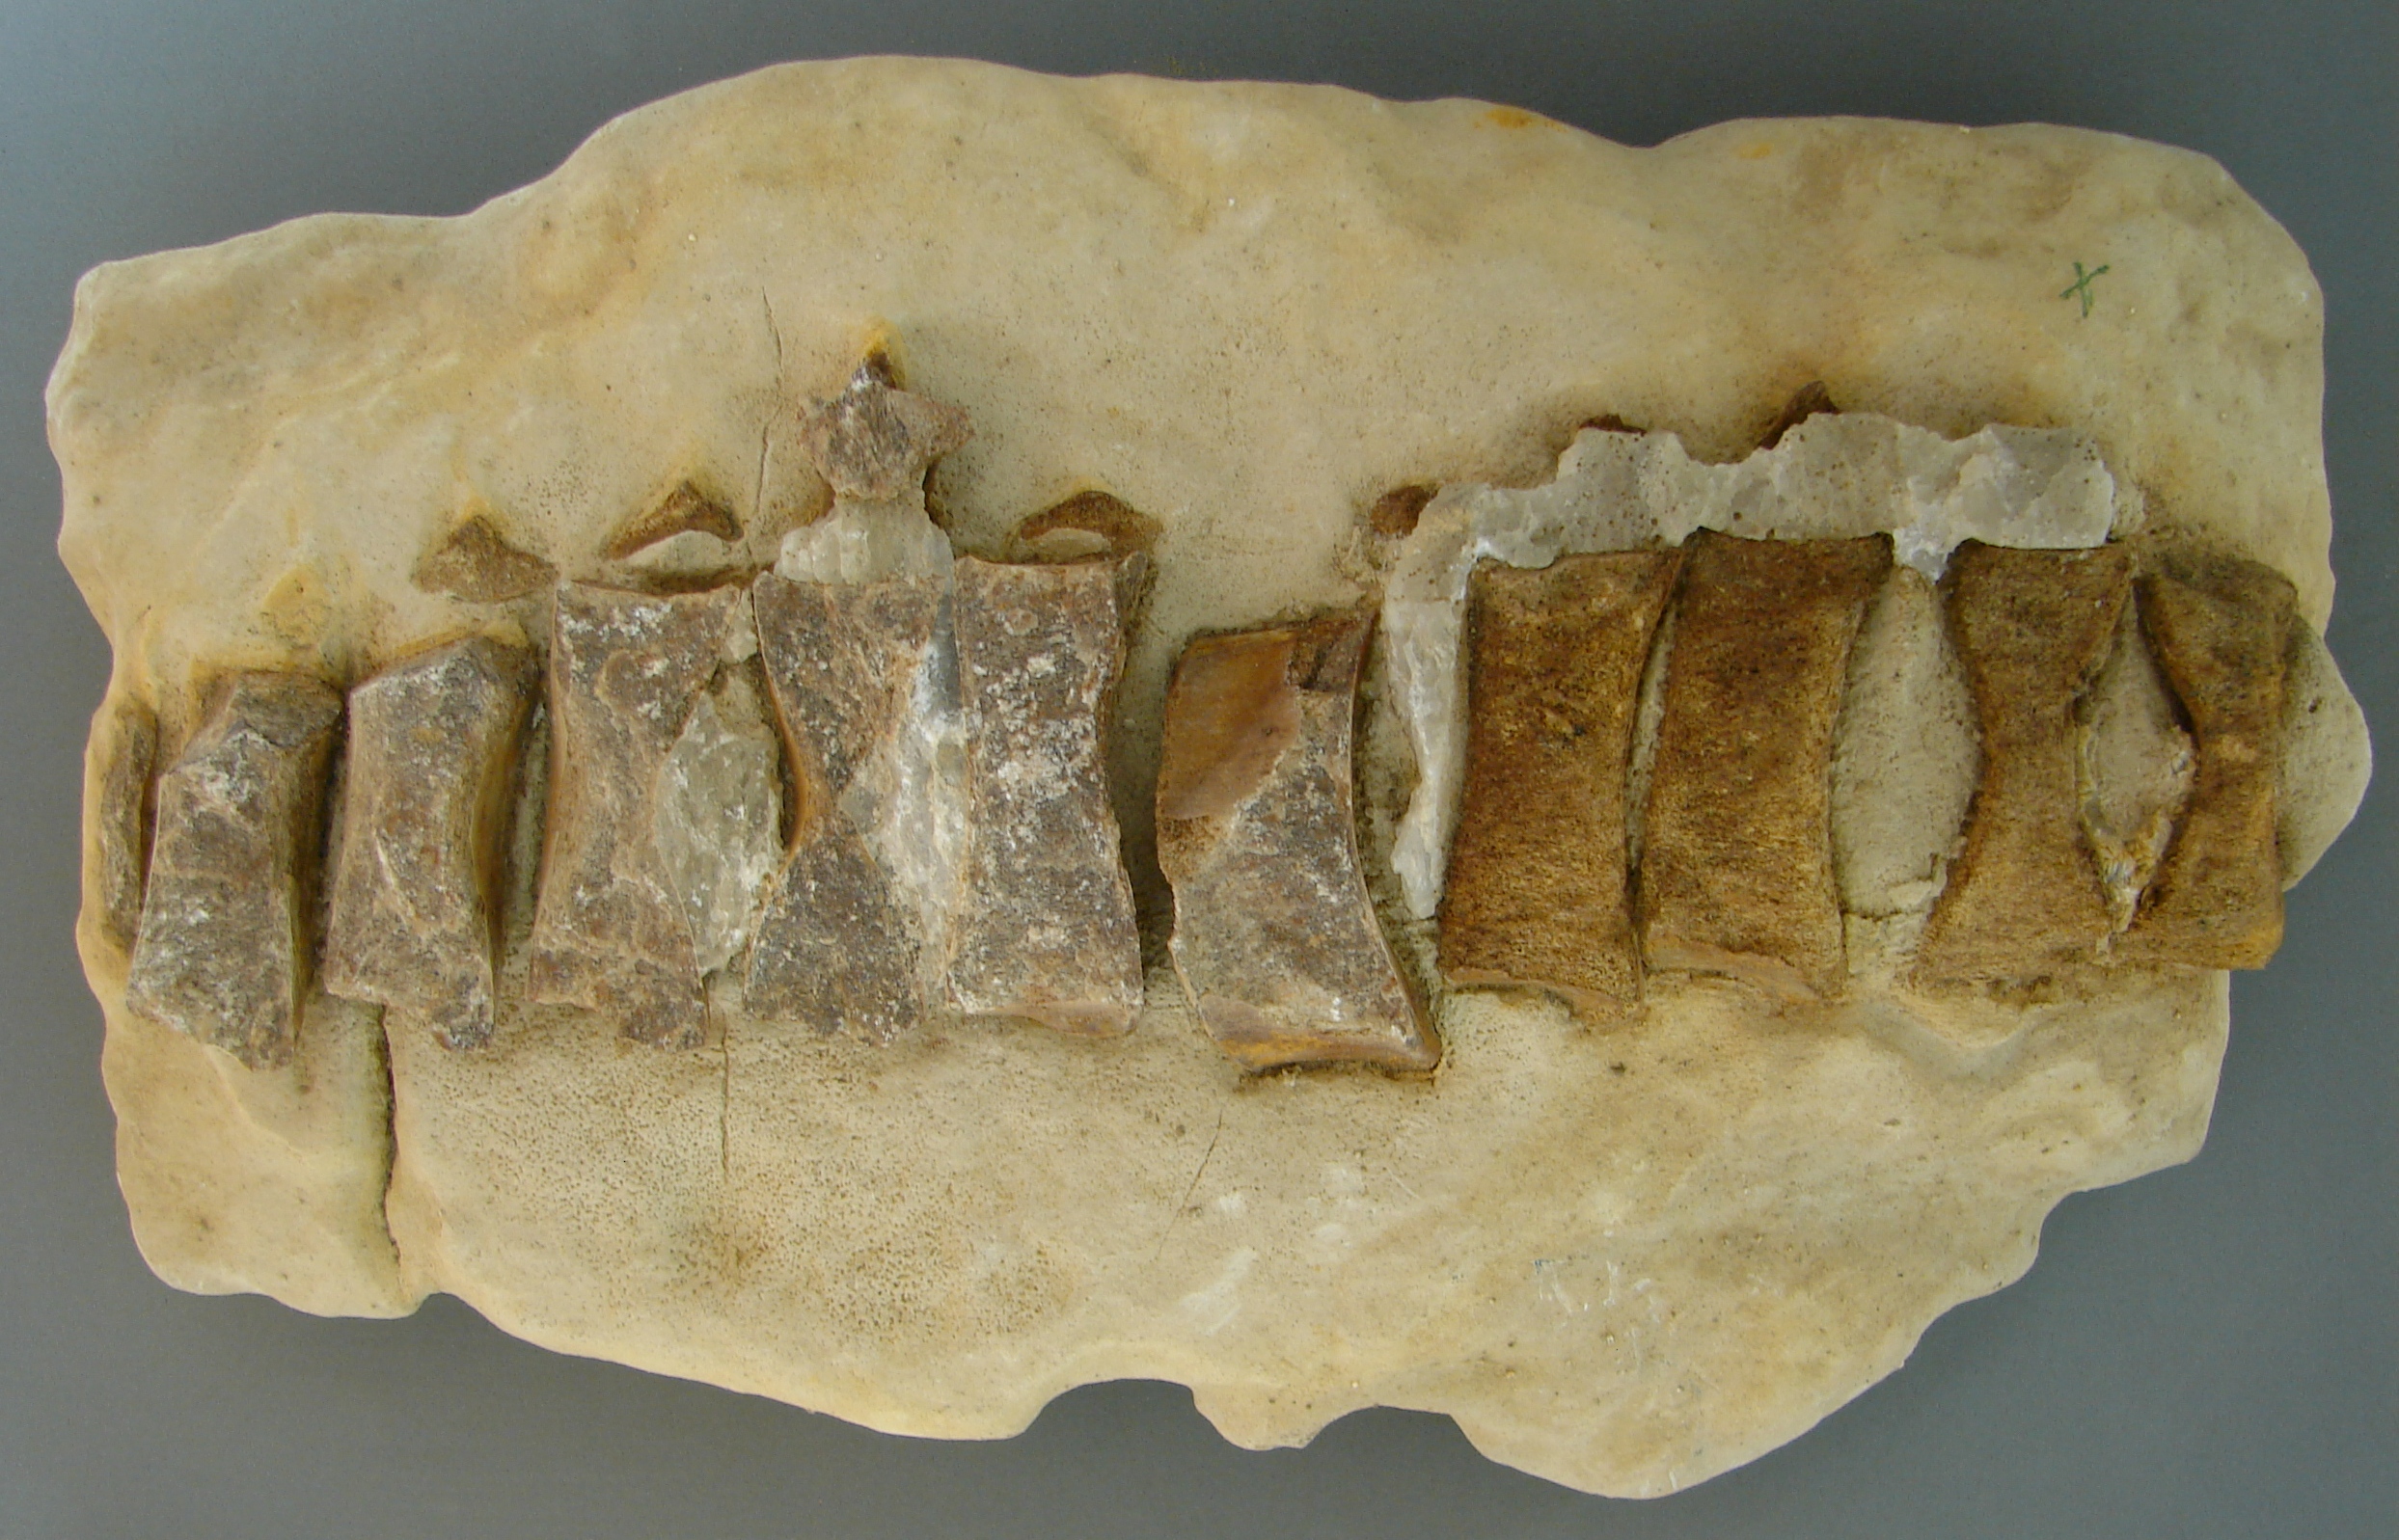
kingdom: Animalia
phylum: Chordata
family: Ichthyosauridae
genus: Ichthyosaurus
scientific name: Ichthyosaurus
